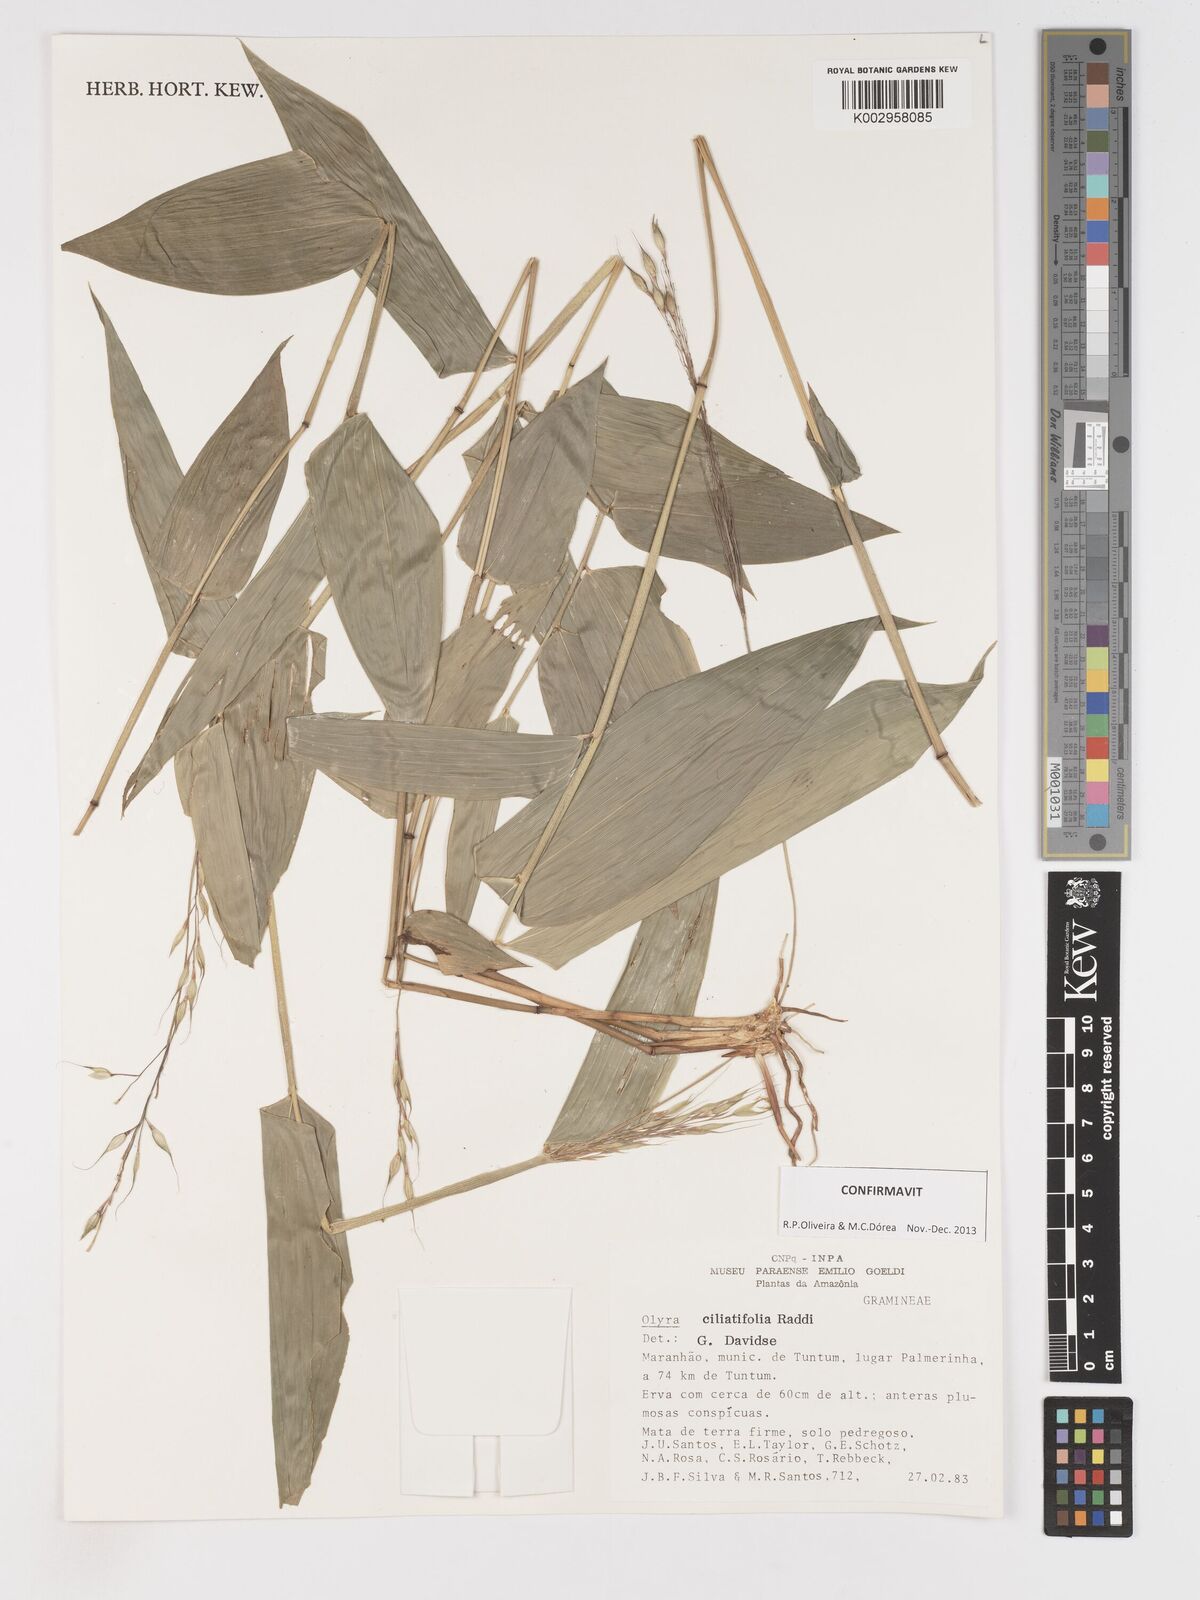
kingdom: Plantae
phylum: Tracheophyta
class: Liliopsida
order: Poales
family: Poaceae
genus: Olyra
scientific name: Olyra ciliatifolia
